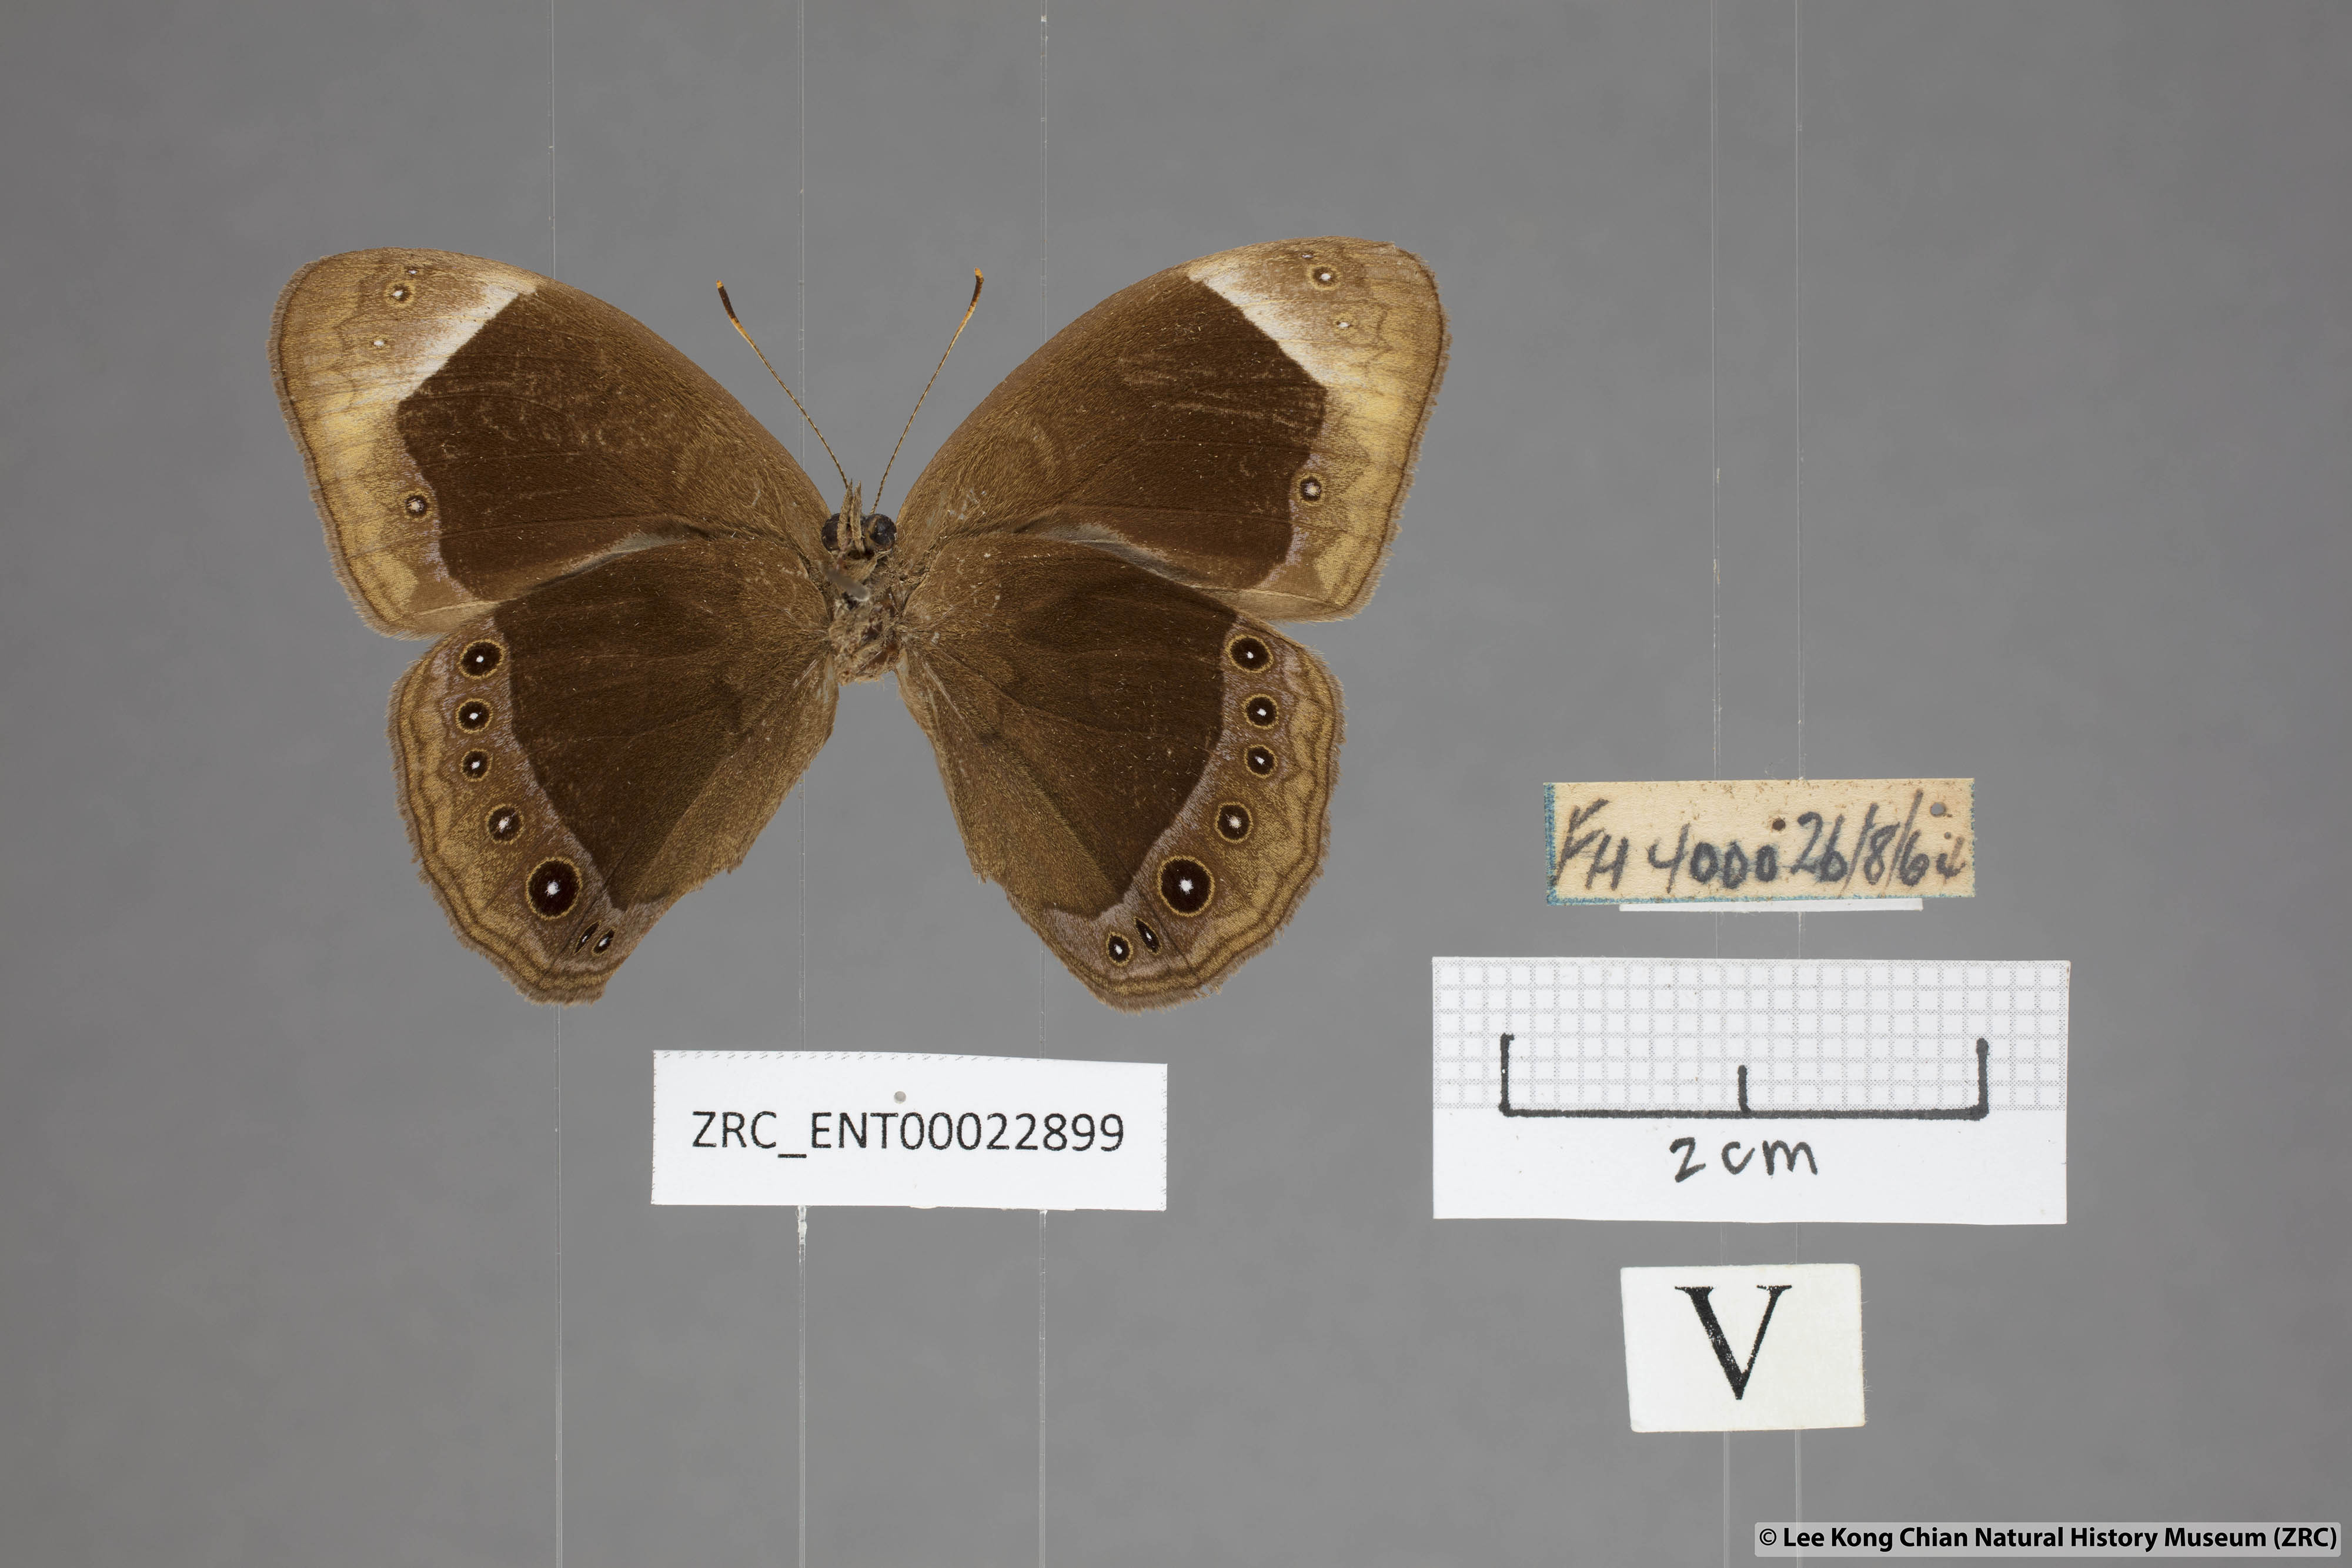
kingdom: Animalia
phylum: Arthropoda
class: Insecta
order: Lepidoptera
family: Nymphalidae
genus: Mycalesis
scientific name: Mycalesis anaxias
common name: White-bar bushbrown
